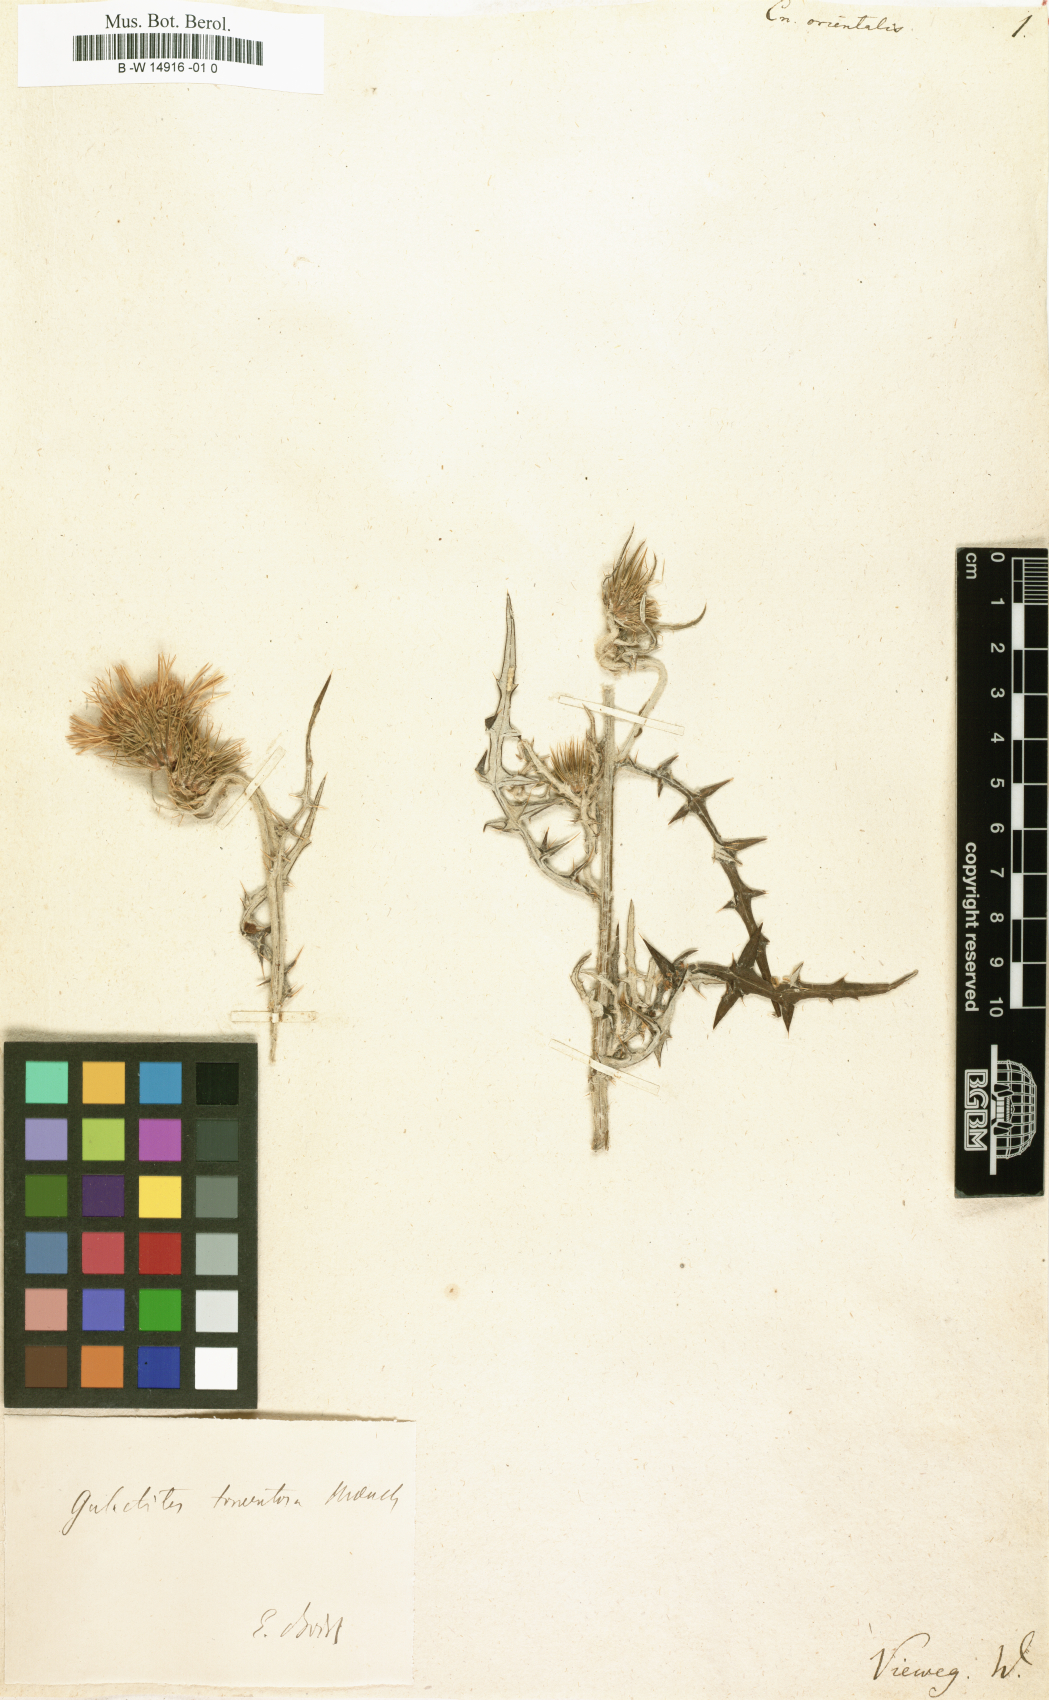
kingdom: Plantae
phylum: Tracheophyta
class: Magnoliopsida
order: Asterales
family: Asteraceae
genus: Galactites
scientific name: Galactites tomentosa
